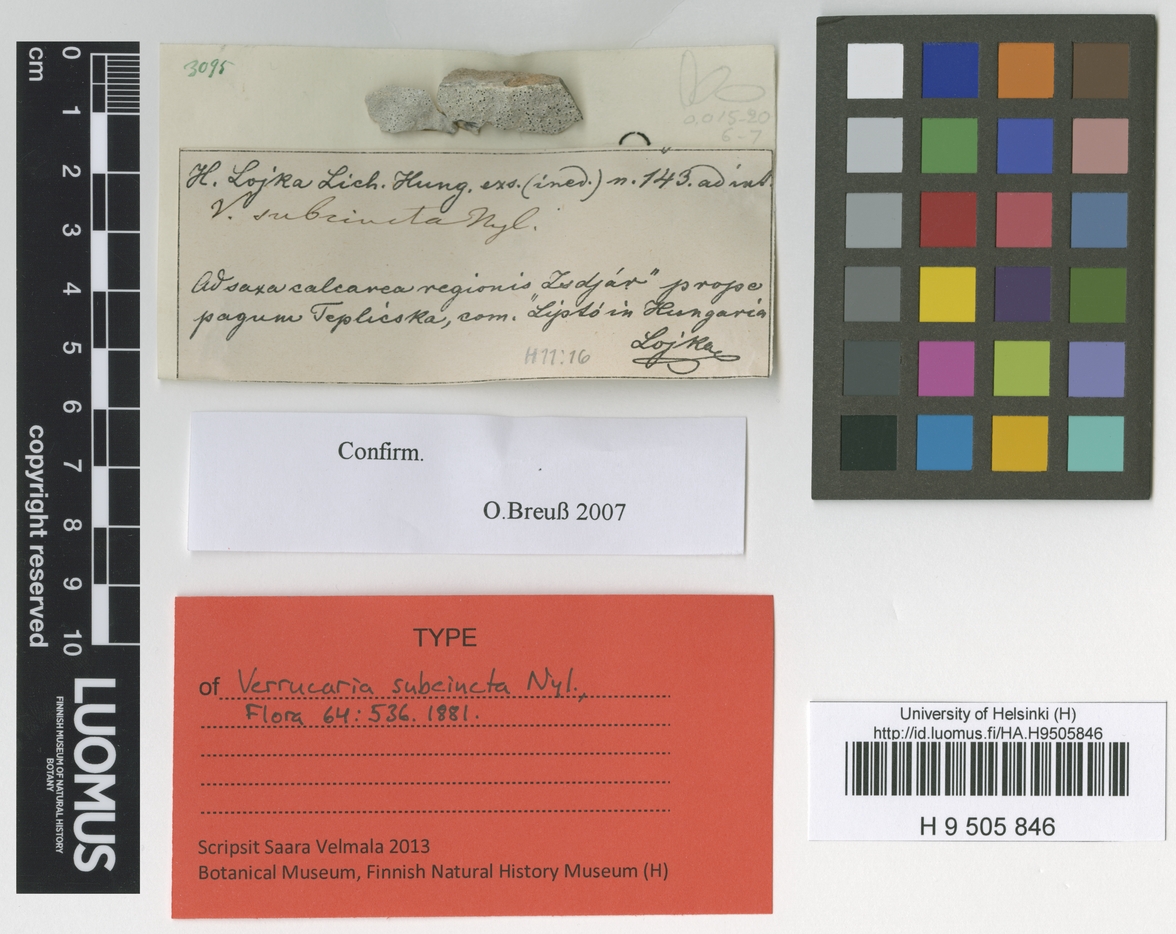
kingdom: Fungi
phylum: Ascomycota
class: Eurotiomycetes
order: Verrucariales
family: Verrucariaceae
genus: Verrucaria
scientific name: Verrucaria subcincta
